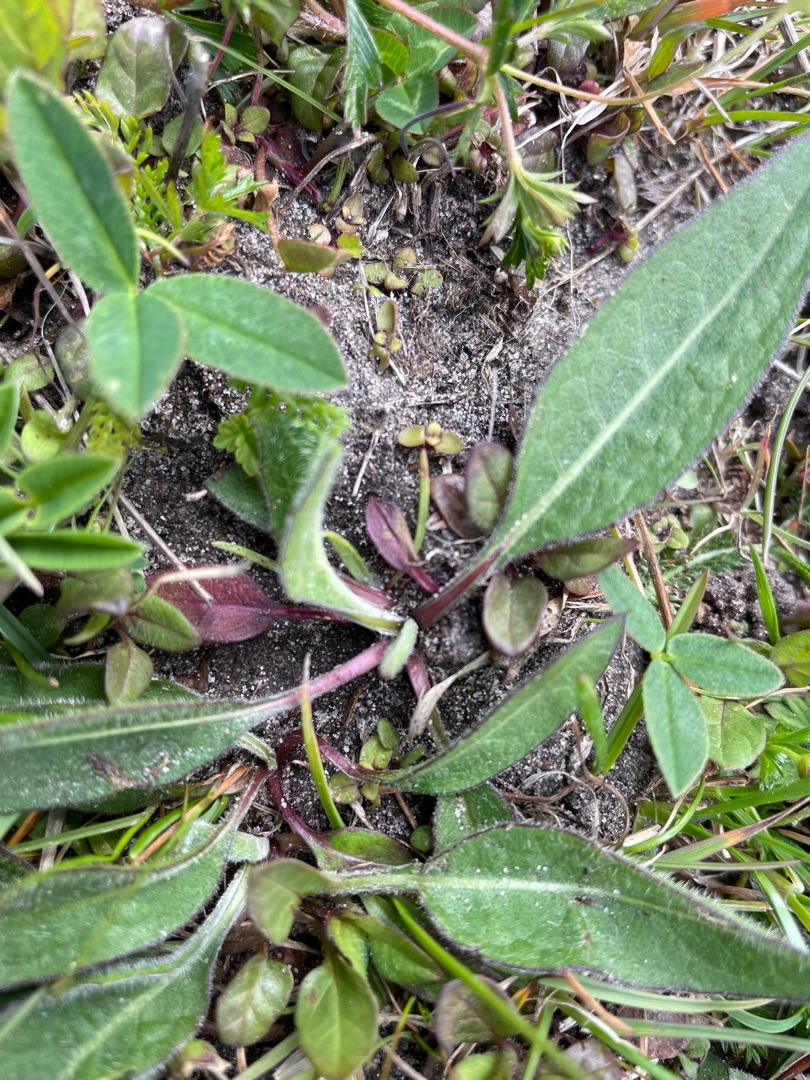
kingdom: Plantae
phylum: Tracheophyta
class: Magnoliopsida
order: Dipsacales
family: Caprifoliaceae
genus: Succisa
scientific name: Succisa pratensis
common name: Djævelsbid
